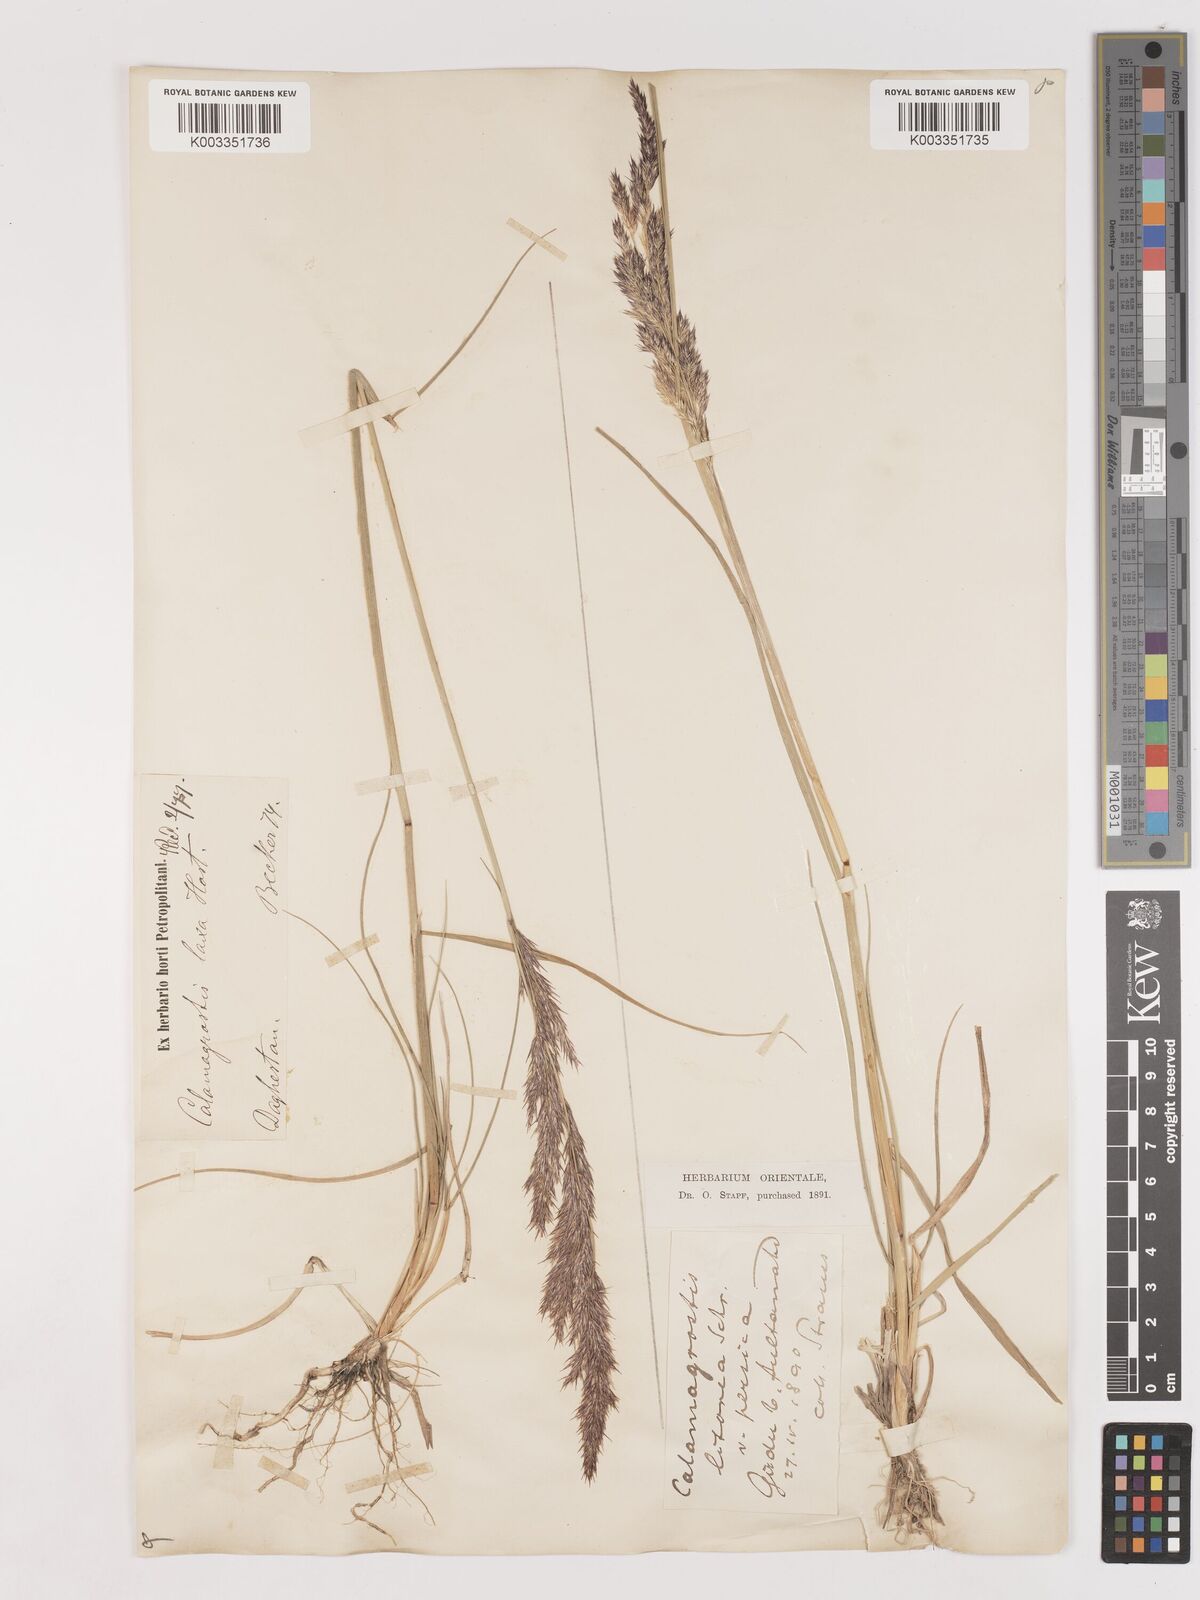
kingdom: Plantae
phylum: Tracheophyta
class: Liliopsida
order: Poales
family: Poaceae
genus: Calamagrostis
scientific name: Calamagrostis
